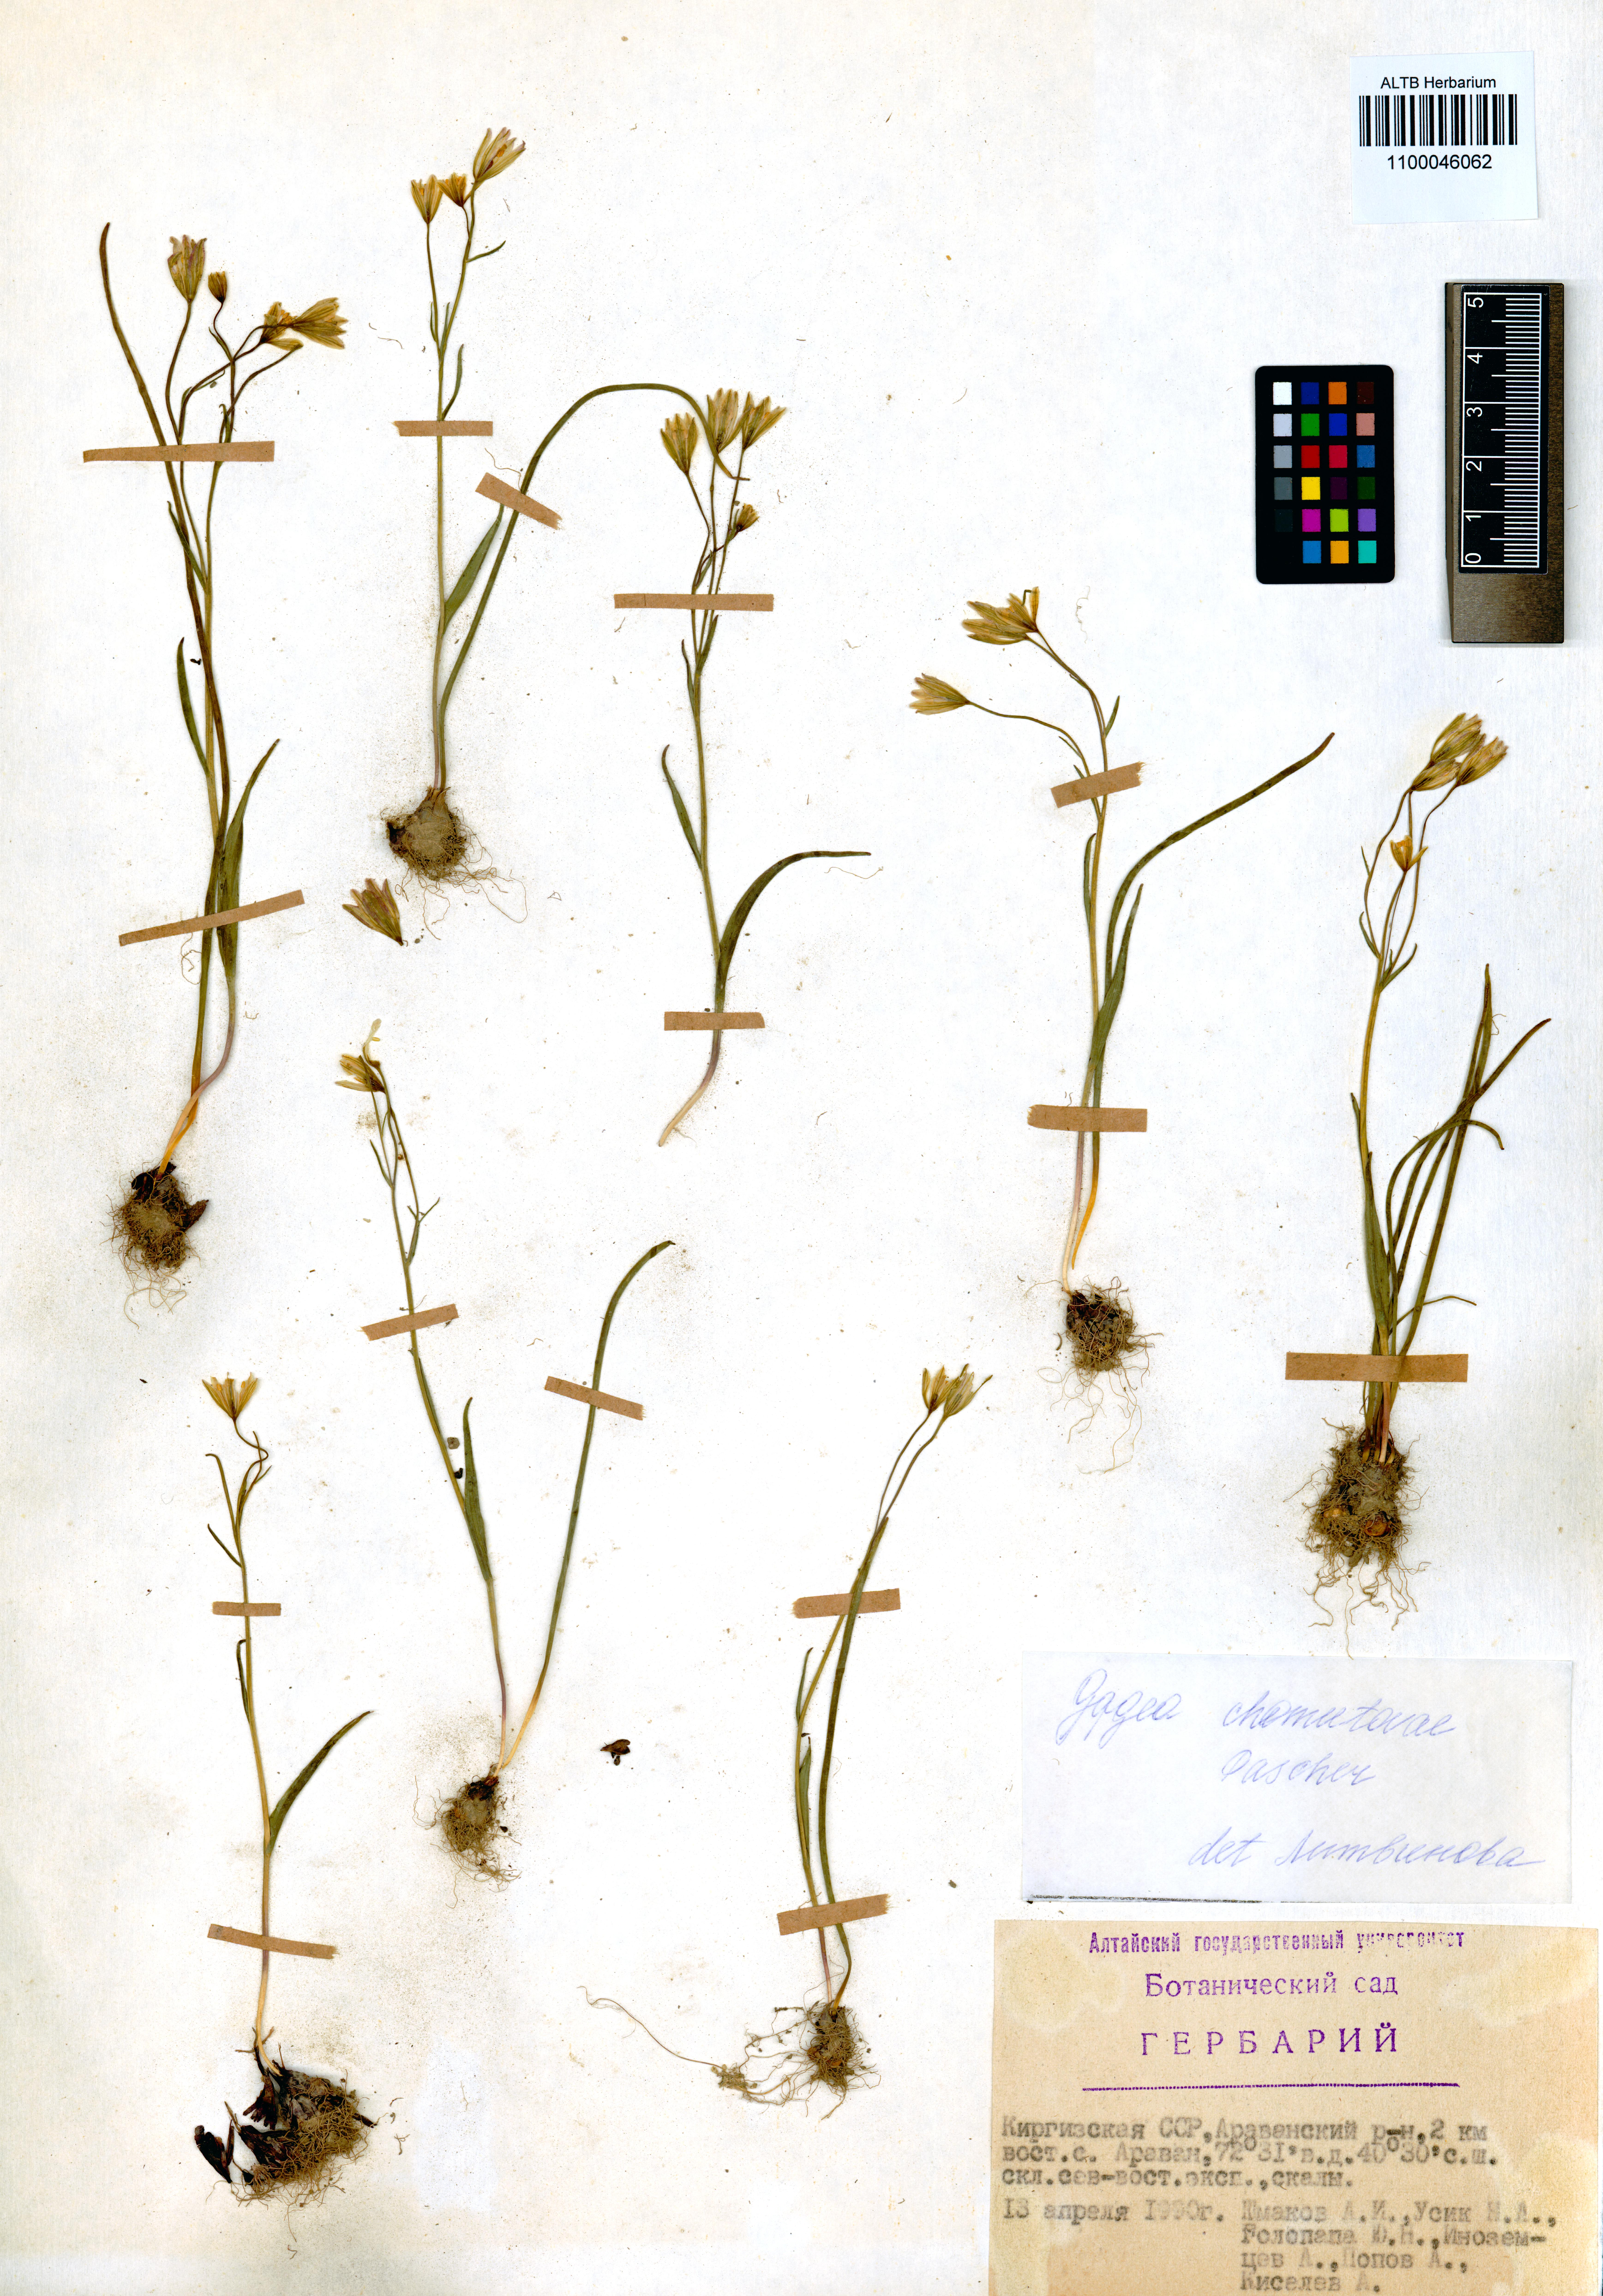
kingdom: Plantae
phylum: Tracheophyta
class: Liliopsida
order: Liliales
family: Liliaceae
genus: Gagea
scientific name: Gagea chomutowae
